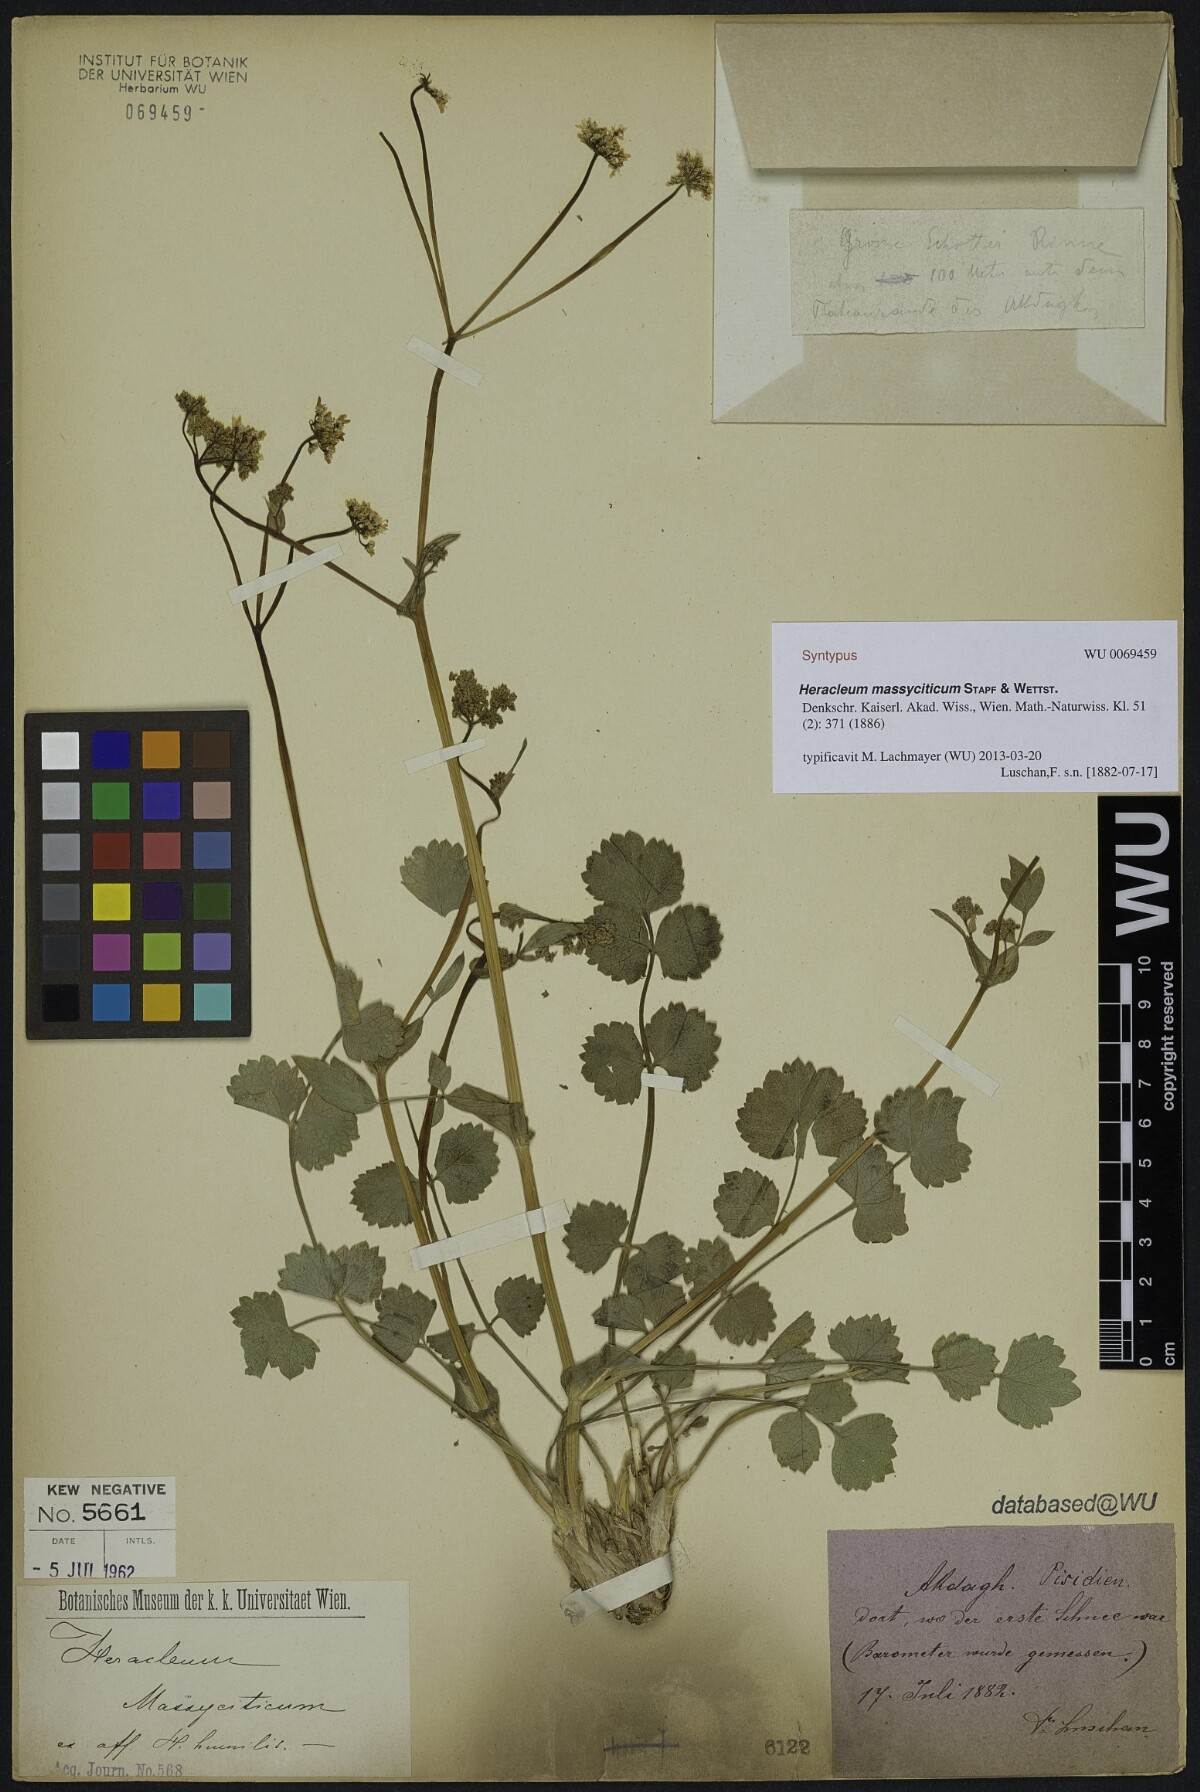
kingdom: Plantae
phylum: Tracheophyta
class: Magnoliopsida
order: Apiales
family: Apiaceae
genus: Heracleum
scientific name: Heracleum humile
